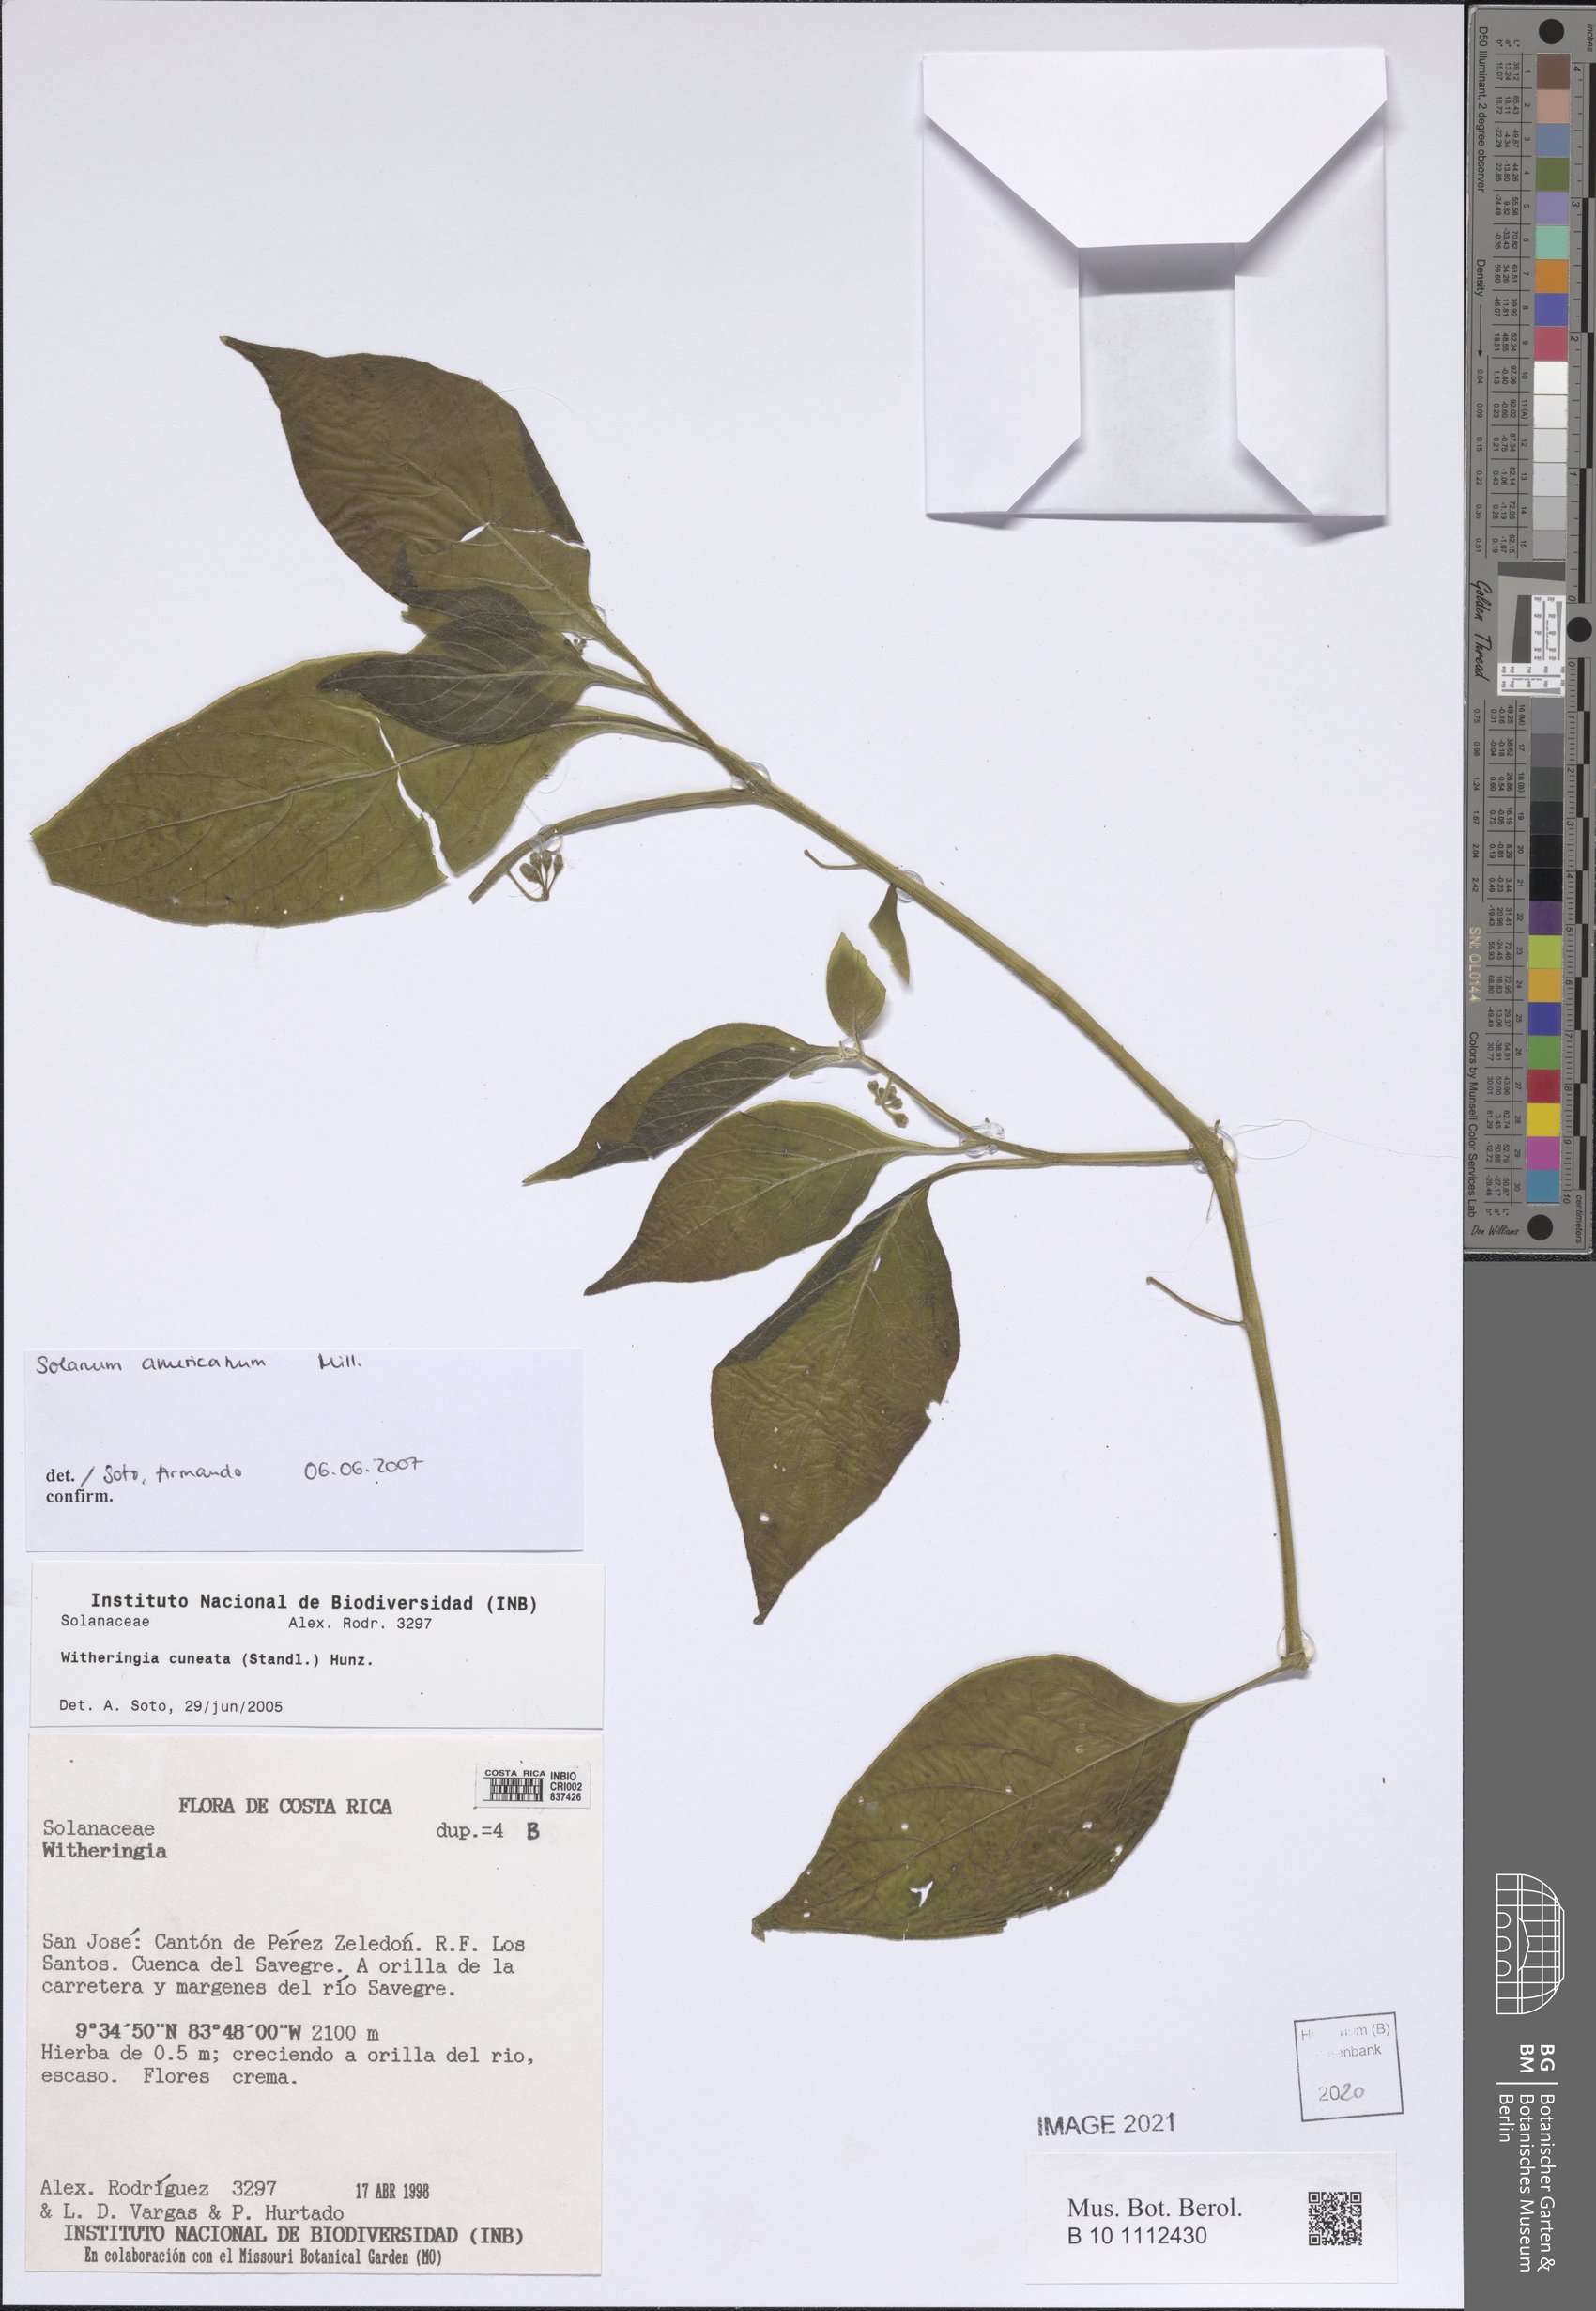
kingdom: Plantae
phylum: Tracheophyta
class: Magnoliopsida
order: Solanales
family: Solanaceae
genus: Solanum
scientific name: Solanum americanum
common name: American black nightshade
